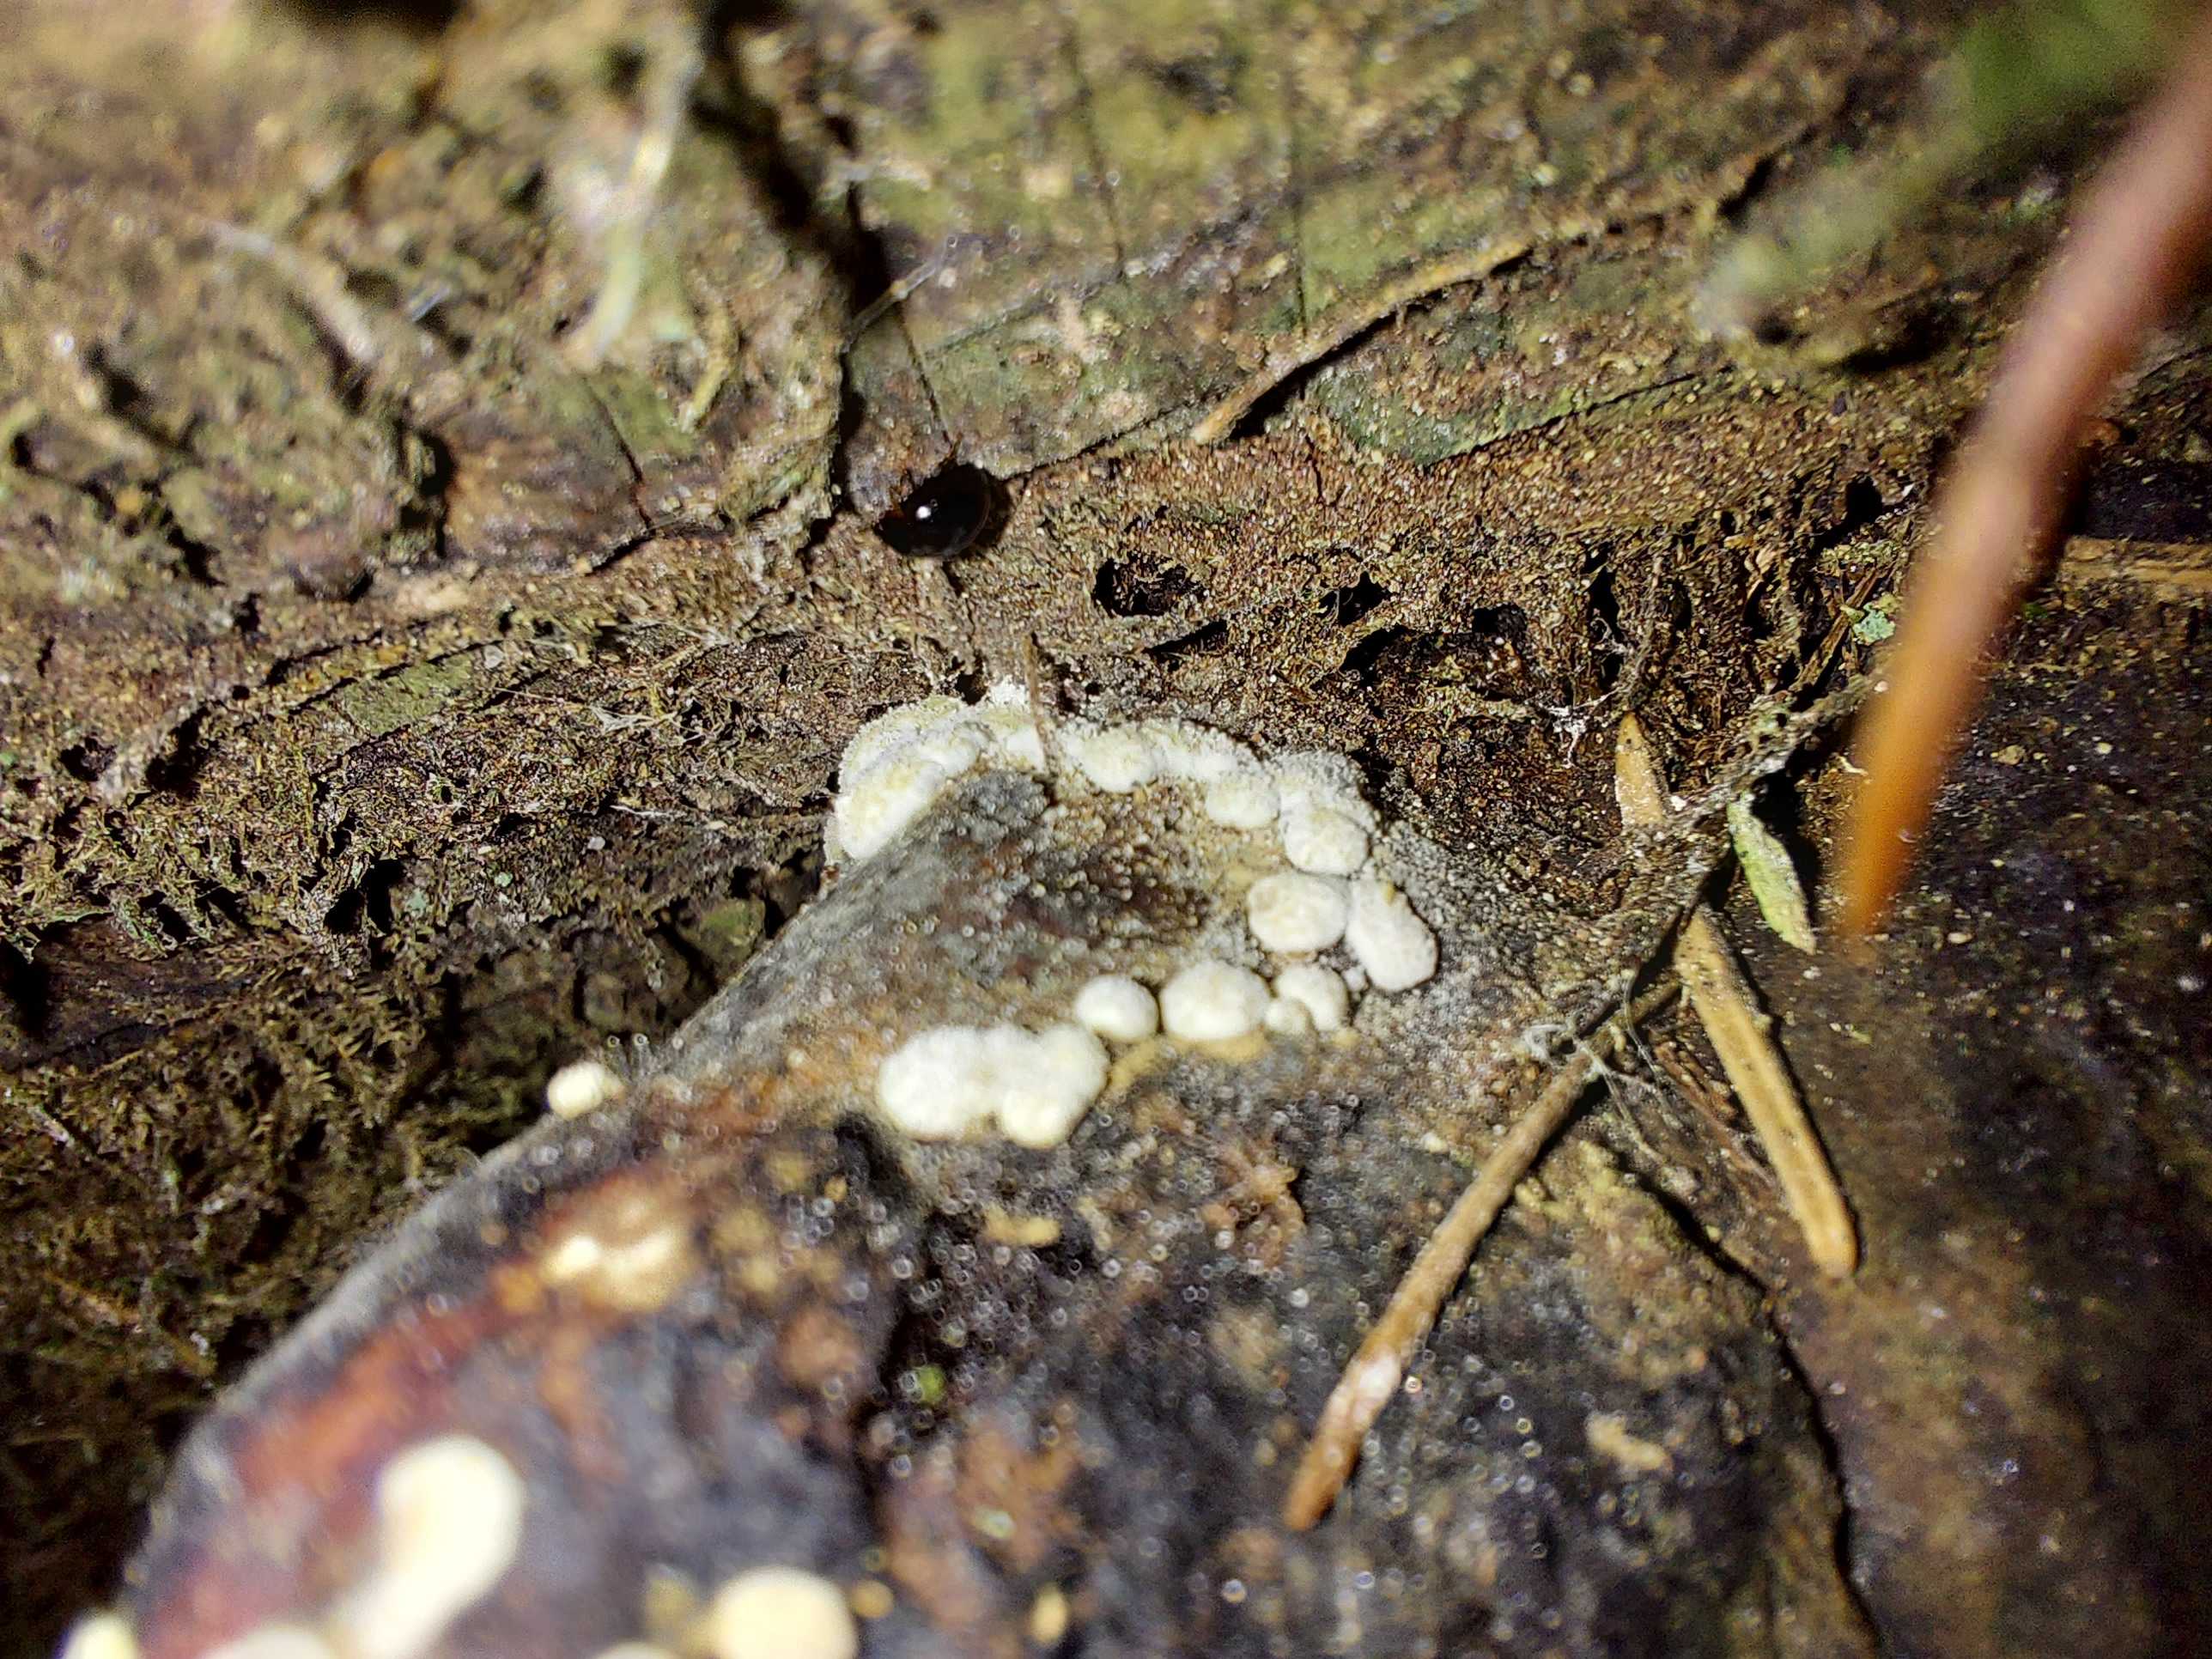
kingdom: Fungi
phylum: Ascomycota
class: Sordariomycetes
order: Hypocreales
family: Hypocreaceae
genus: Trichoderma
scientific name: Trichoderma pulvinatum
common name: snyltende kødkerne
